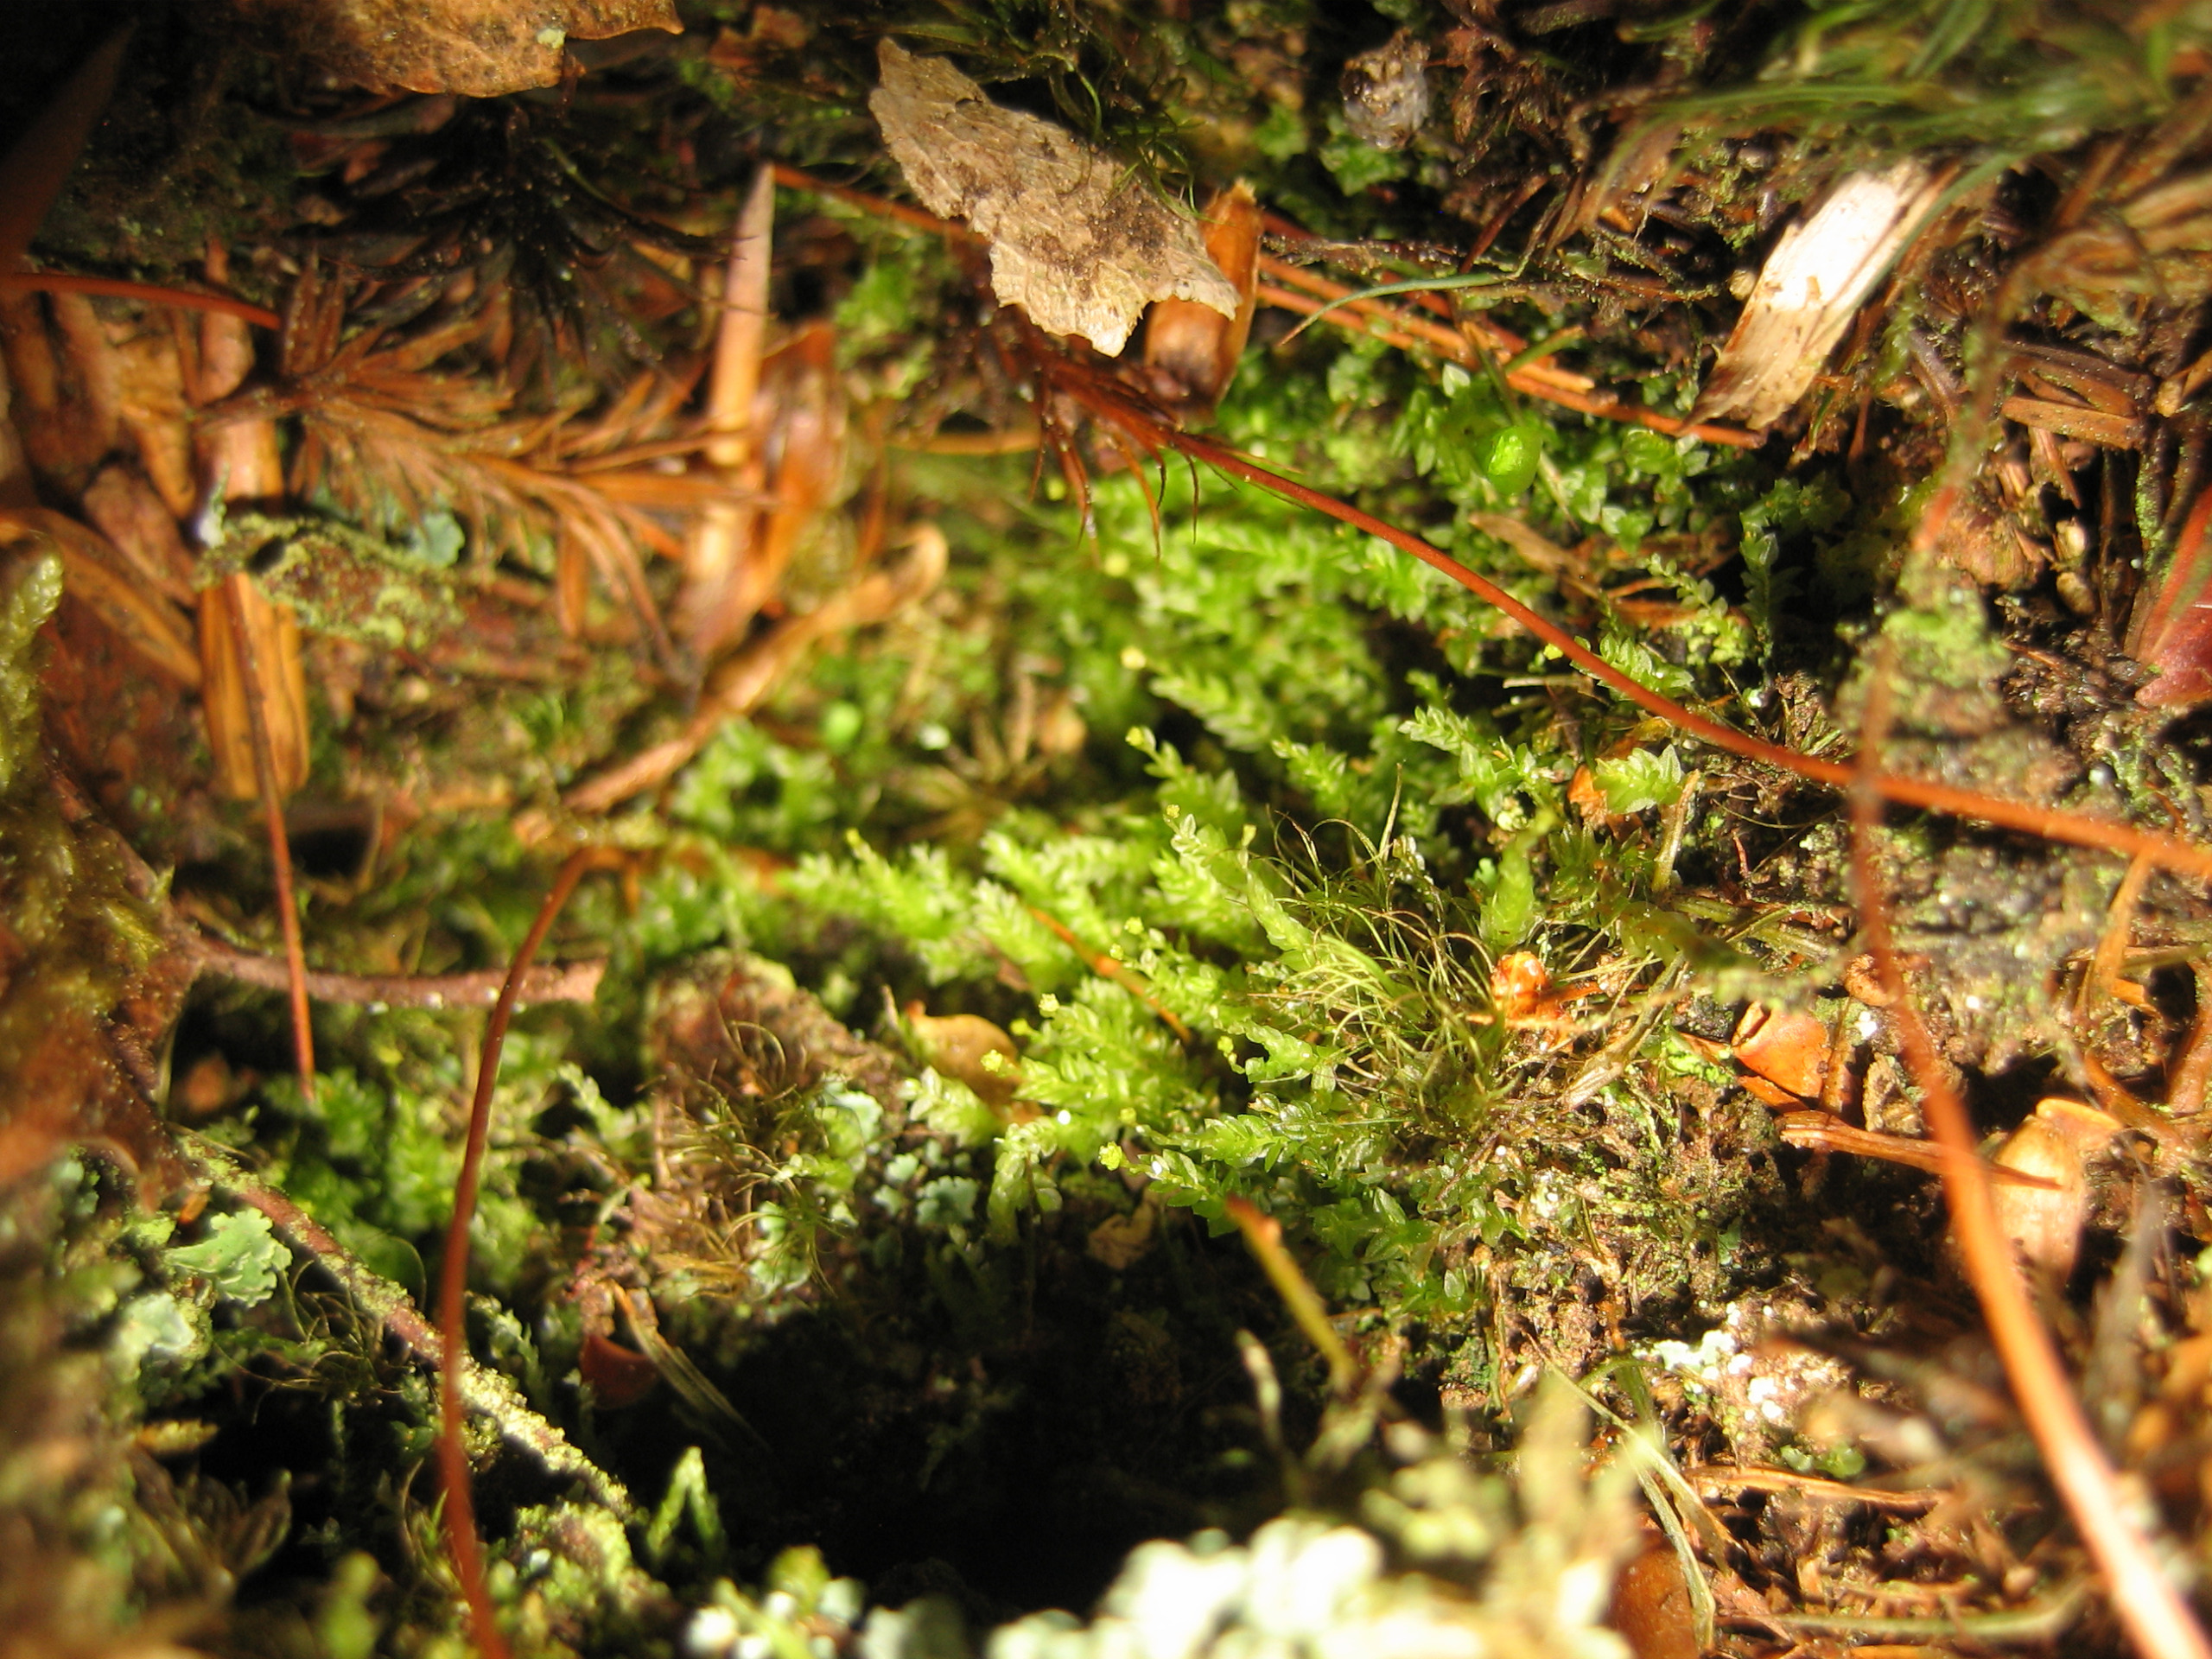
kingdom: Plantae
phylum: Bryophyta
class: Polytrichopsida
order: Tetraphidales
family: Tetraphidaceae
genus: Tetraphis
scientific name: Tetraphis pellucida
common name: Almindelig firtand
